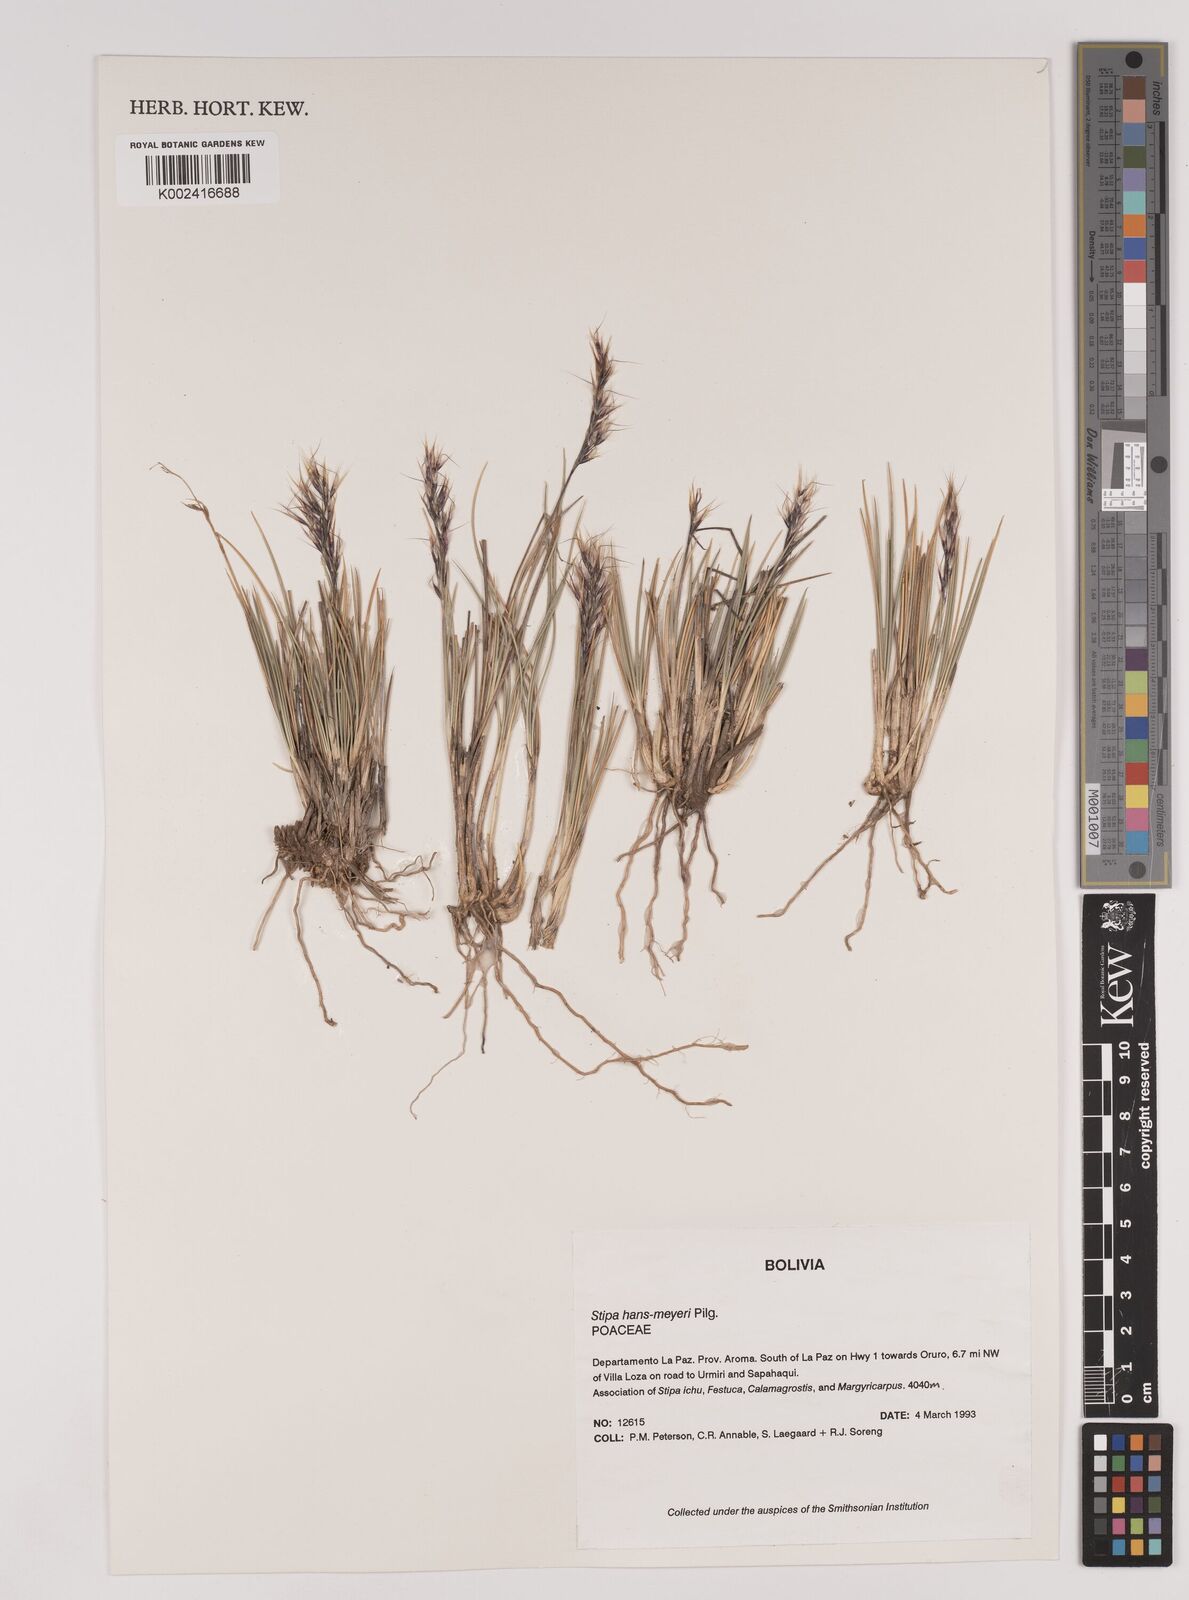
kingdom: Plantae
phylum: Tracheophyta
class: Liliopsida
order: Poales
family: Poaceae
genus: Stipa
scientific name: Stipa hans-meyeri
